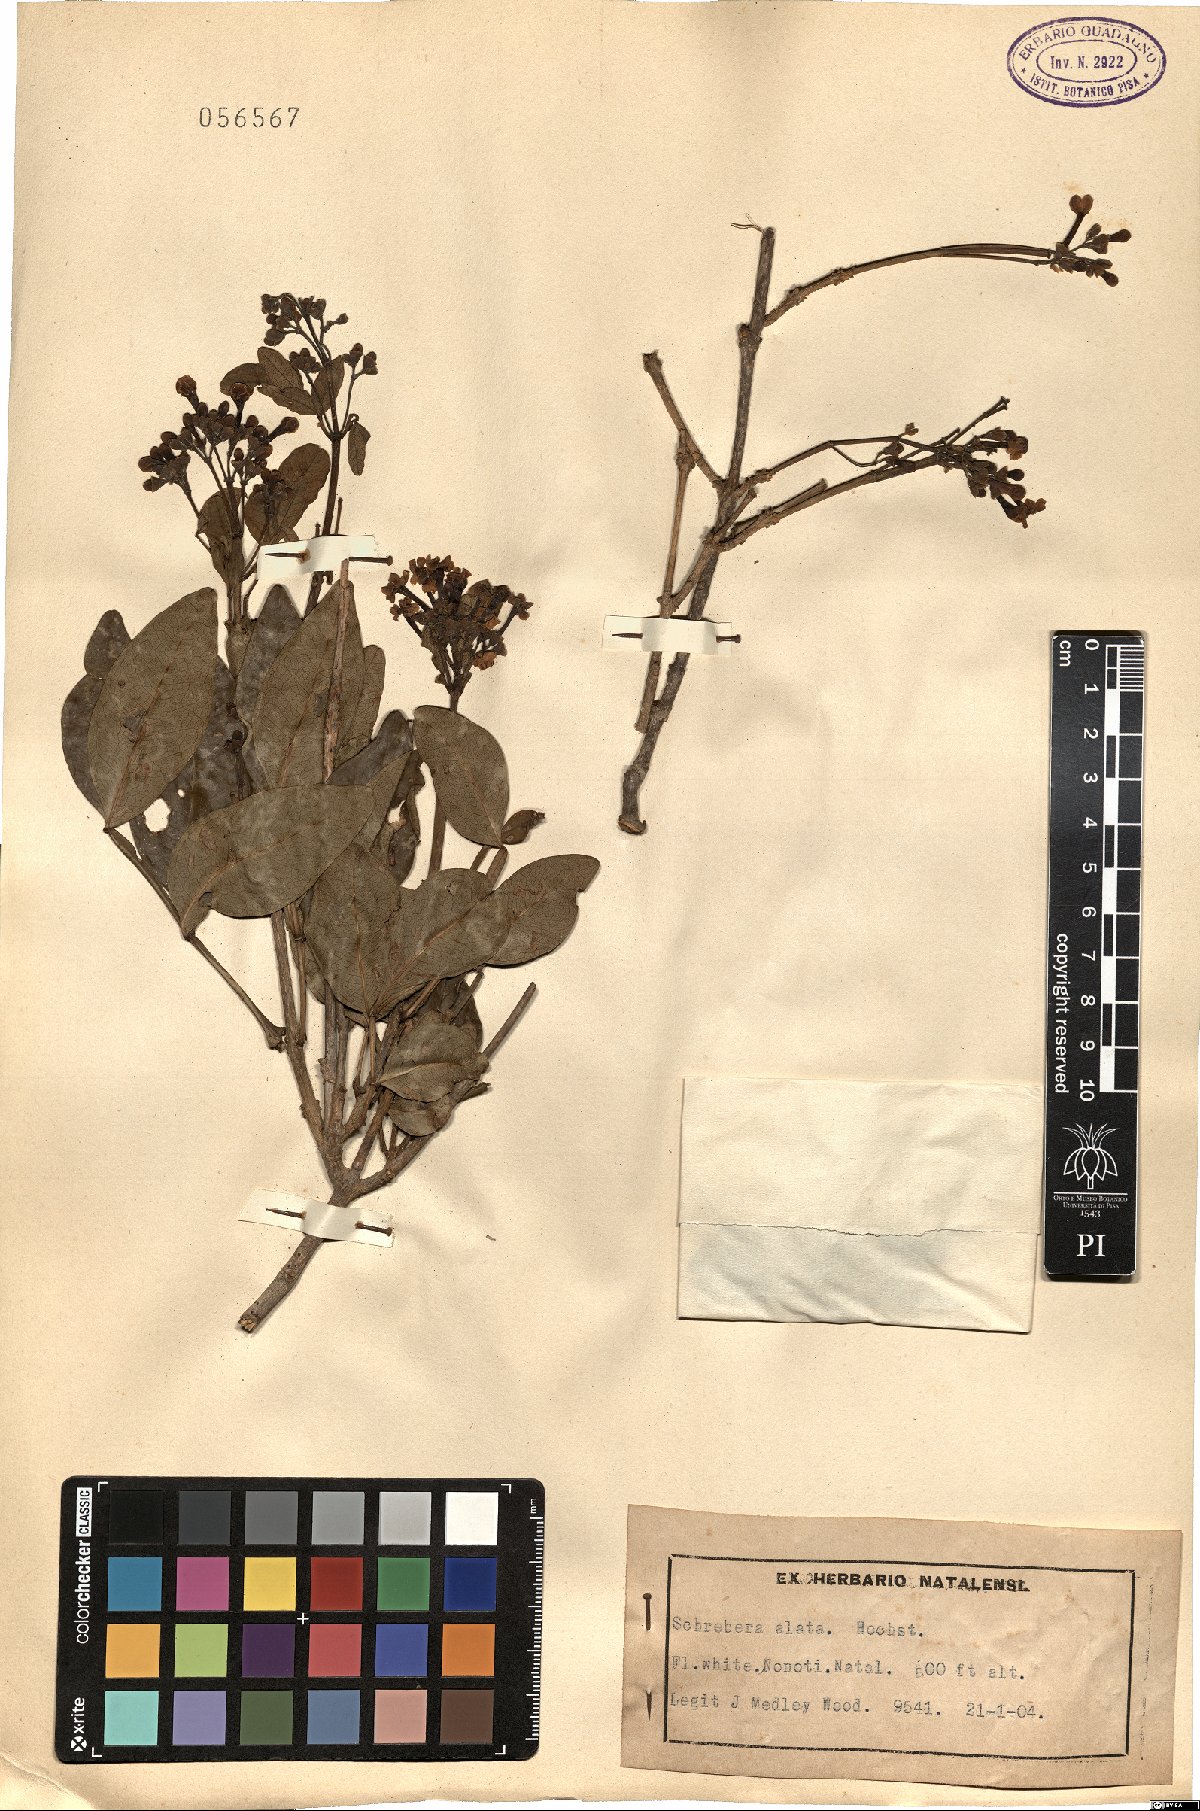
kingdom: Plantae
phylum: Tracheophyta
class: Magnoliopsida
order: Lamiales
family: Oleaceae
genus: Schrebera
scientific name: Schrebera alata
